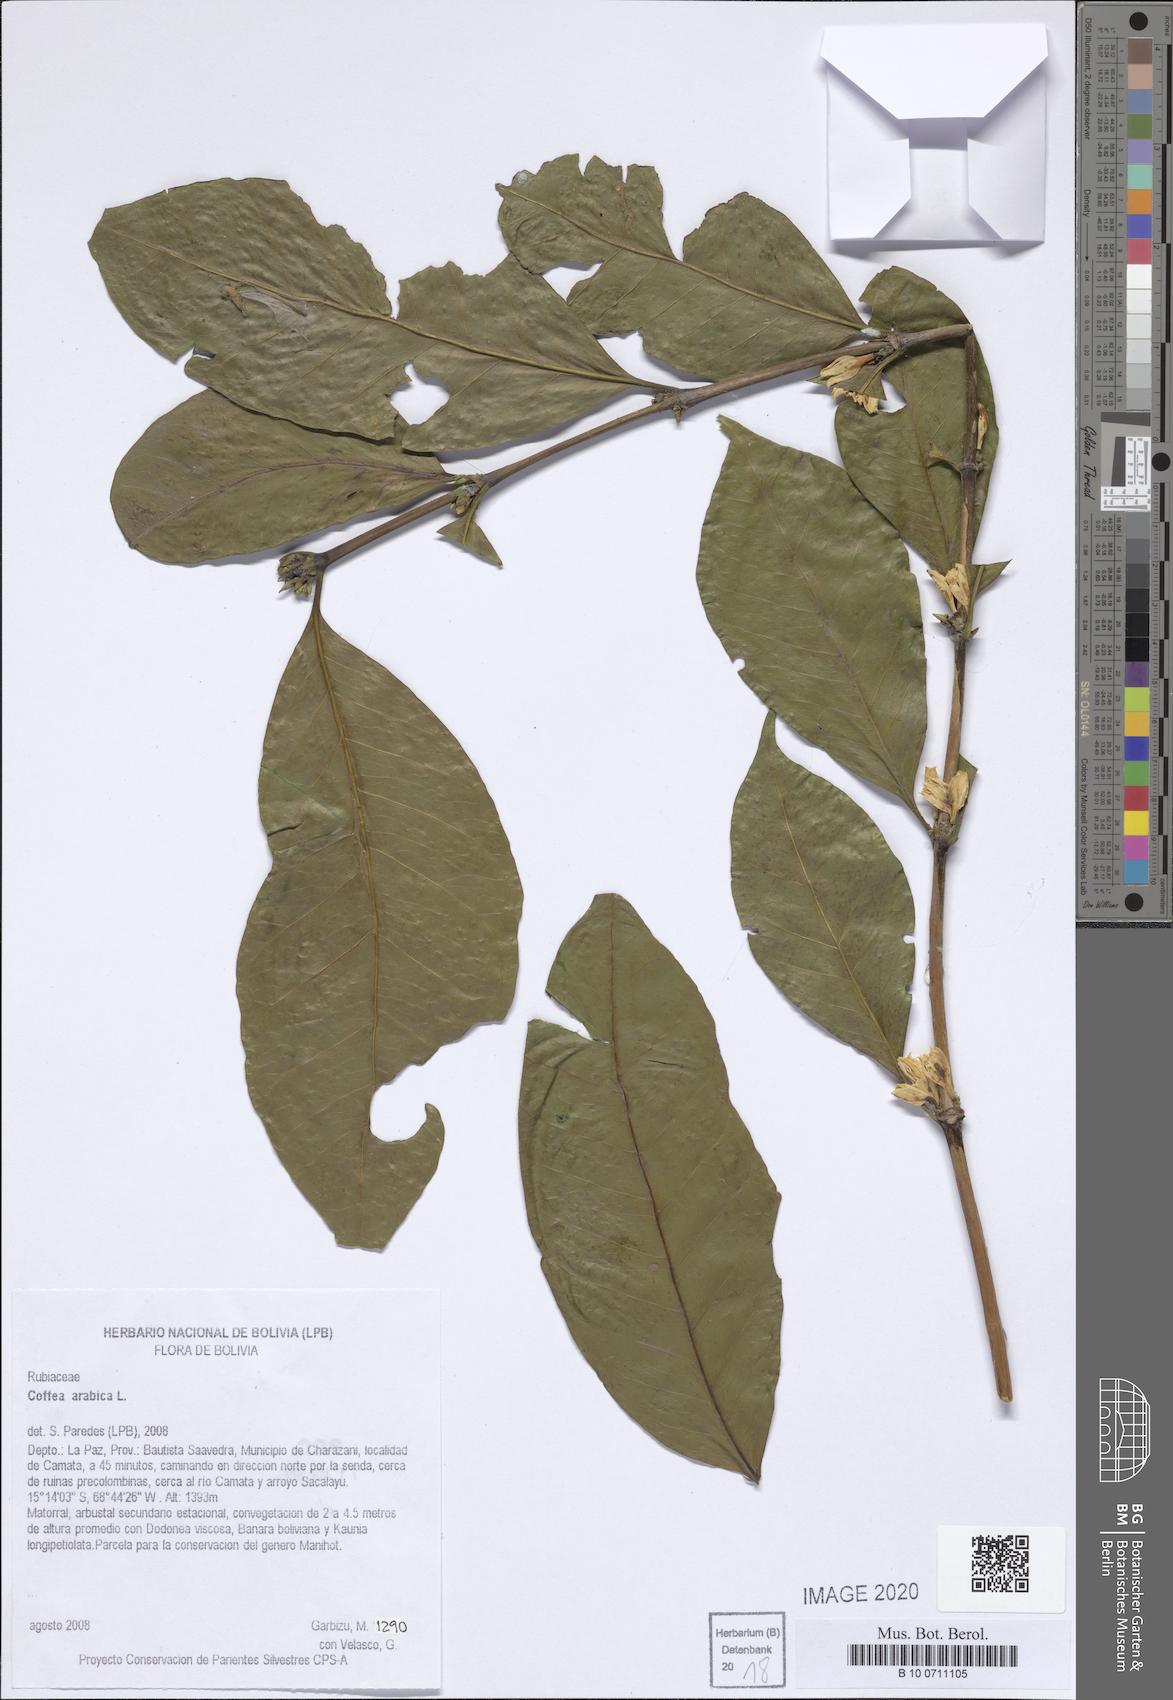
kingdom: Plantae
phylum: Tracheophyta
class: Magnoliopsida
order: Gentianales
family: Rubiaceae
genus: Coffea
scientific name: Coffea arabica
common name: Coffee
